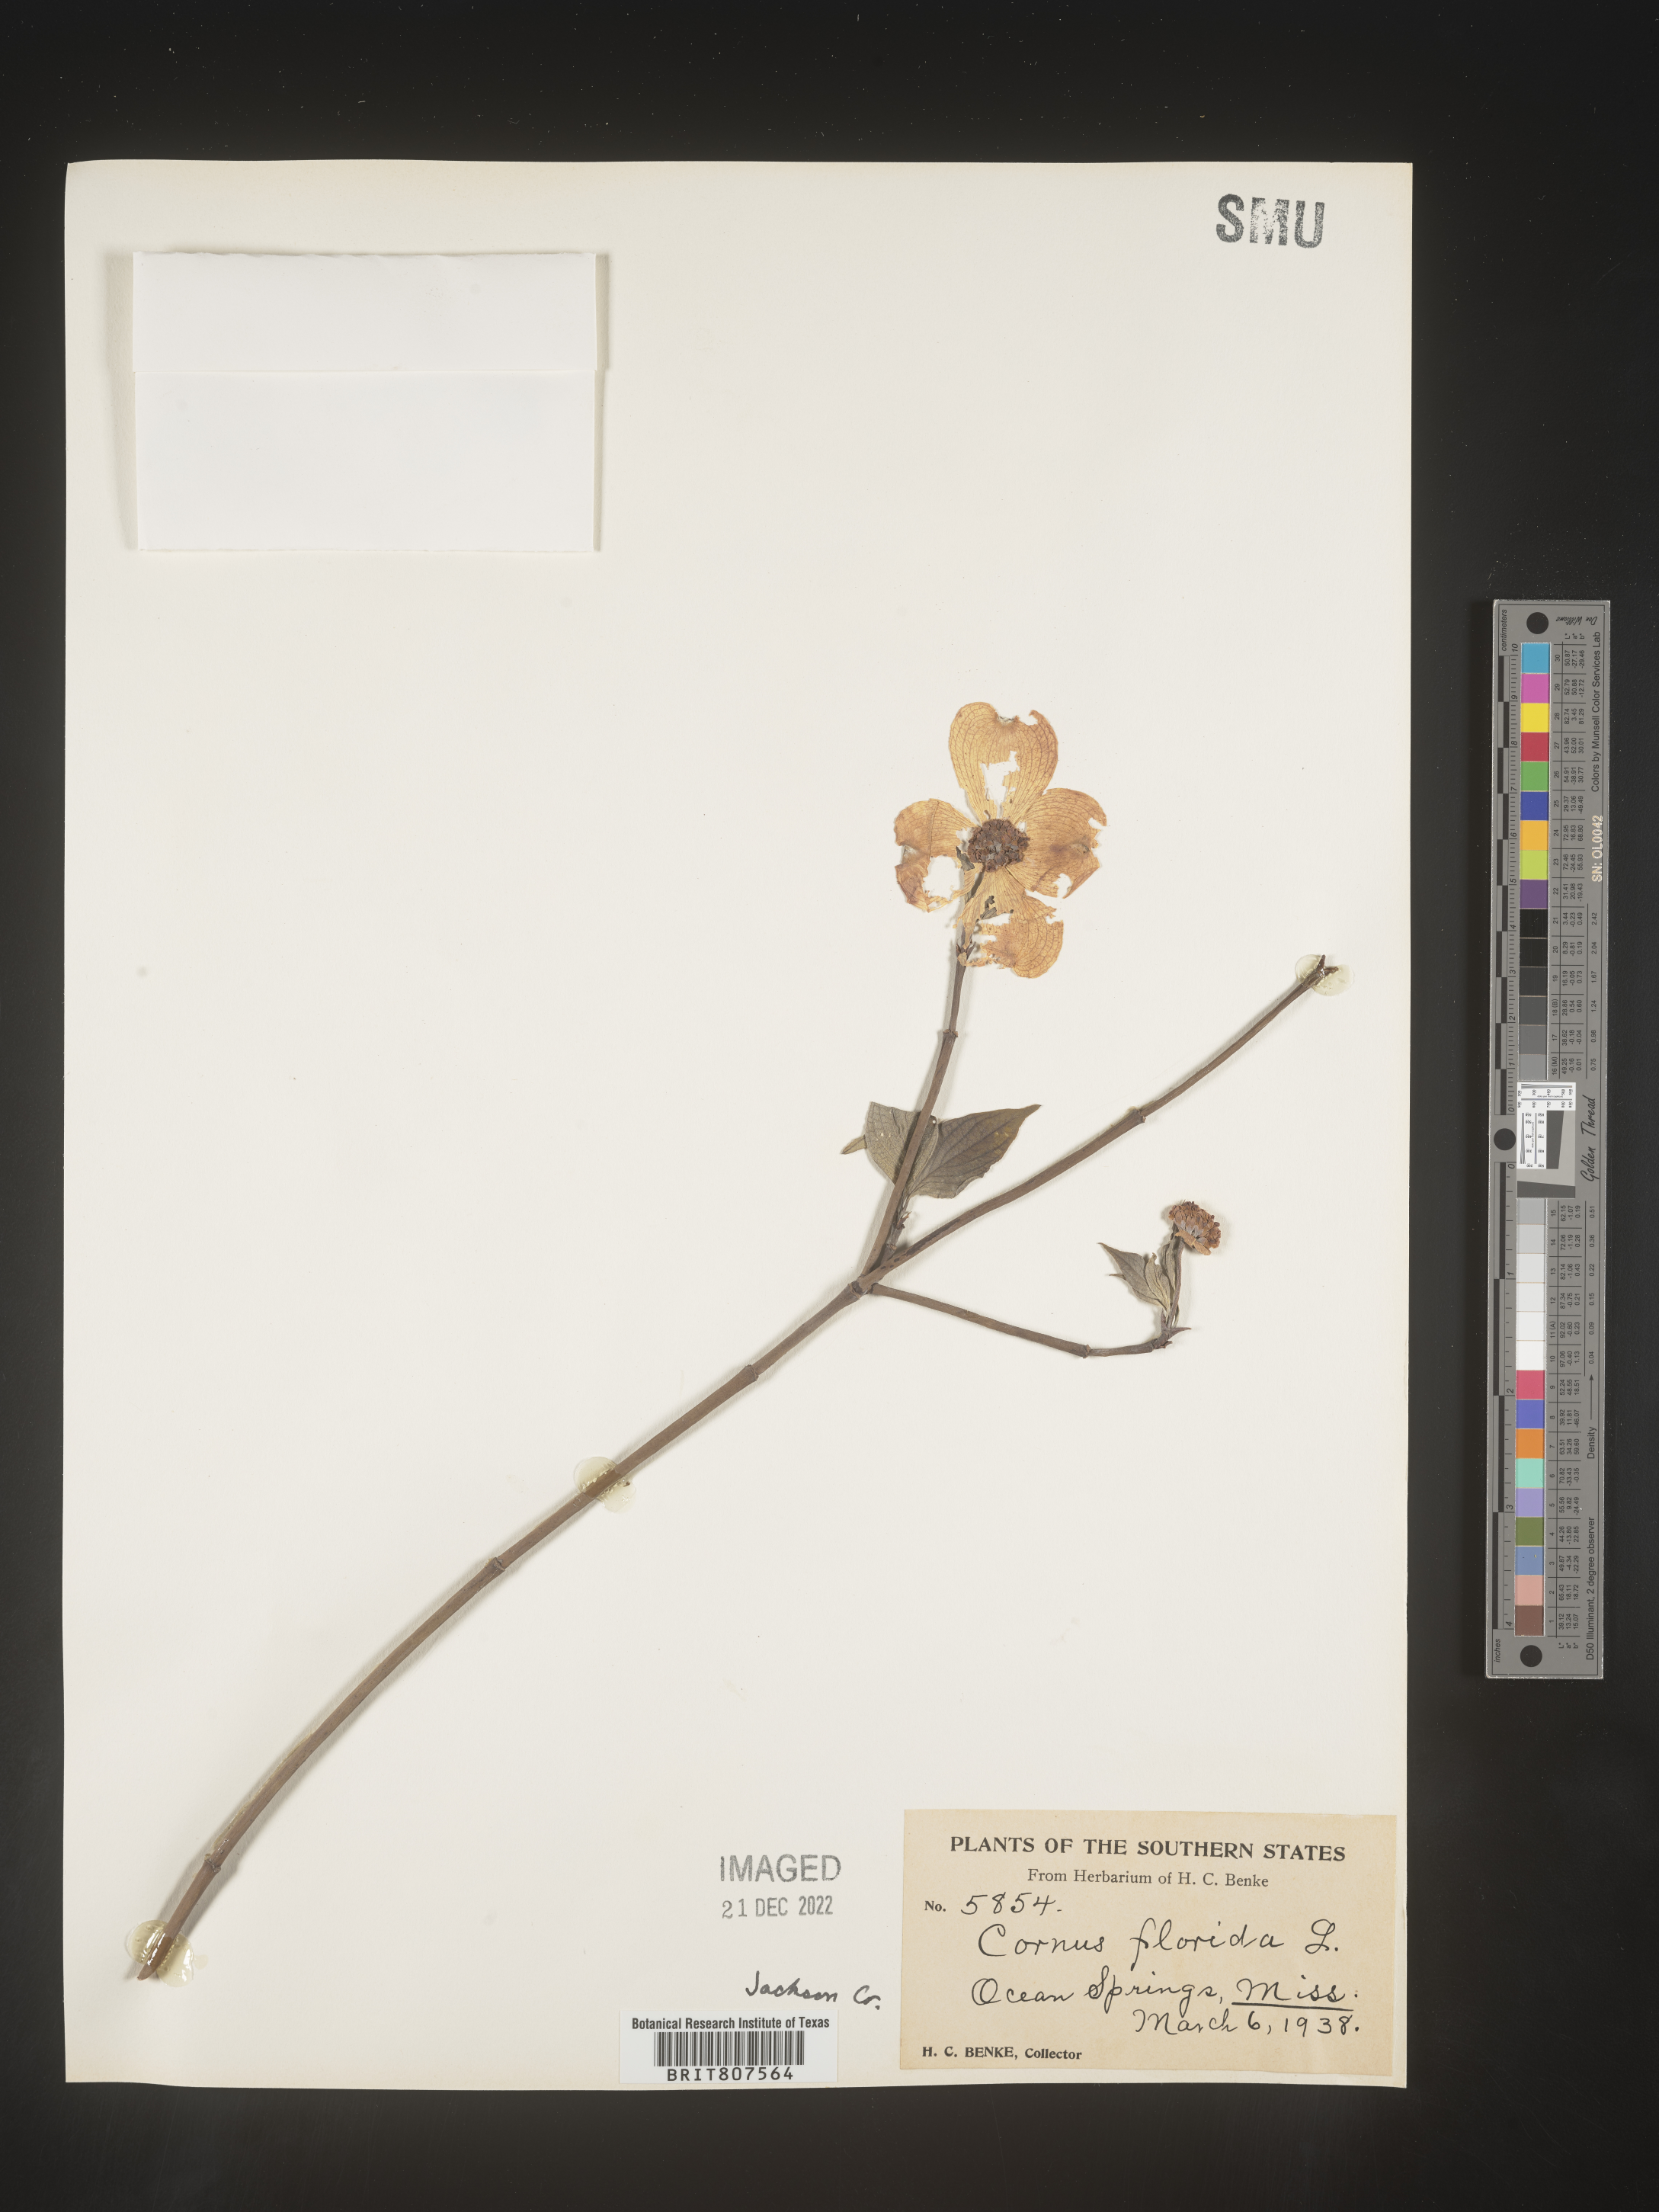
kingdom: Plantae
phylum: Tracheophyta
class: Magnoliopsida
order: Cornales
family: Cornaceae
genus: Cornus
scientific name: Cornus florida
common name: Flowering dogwood
